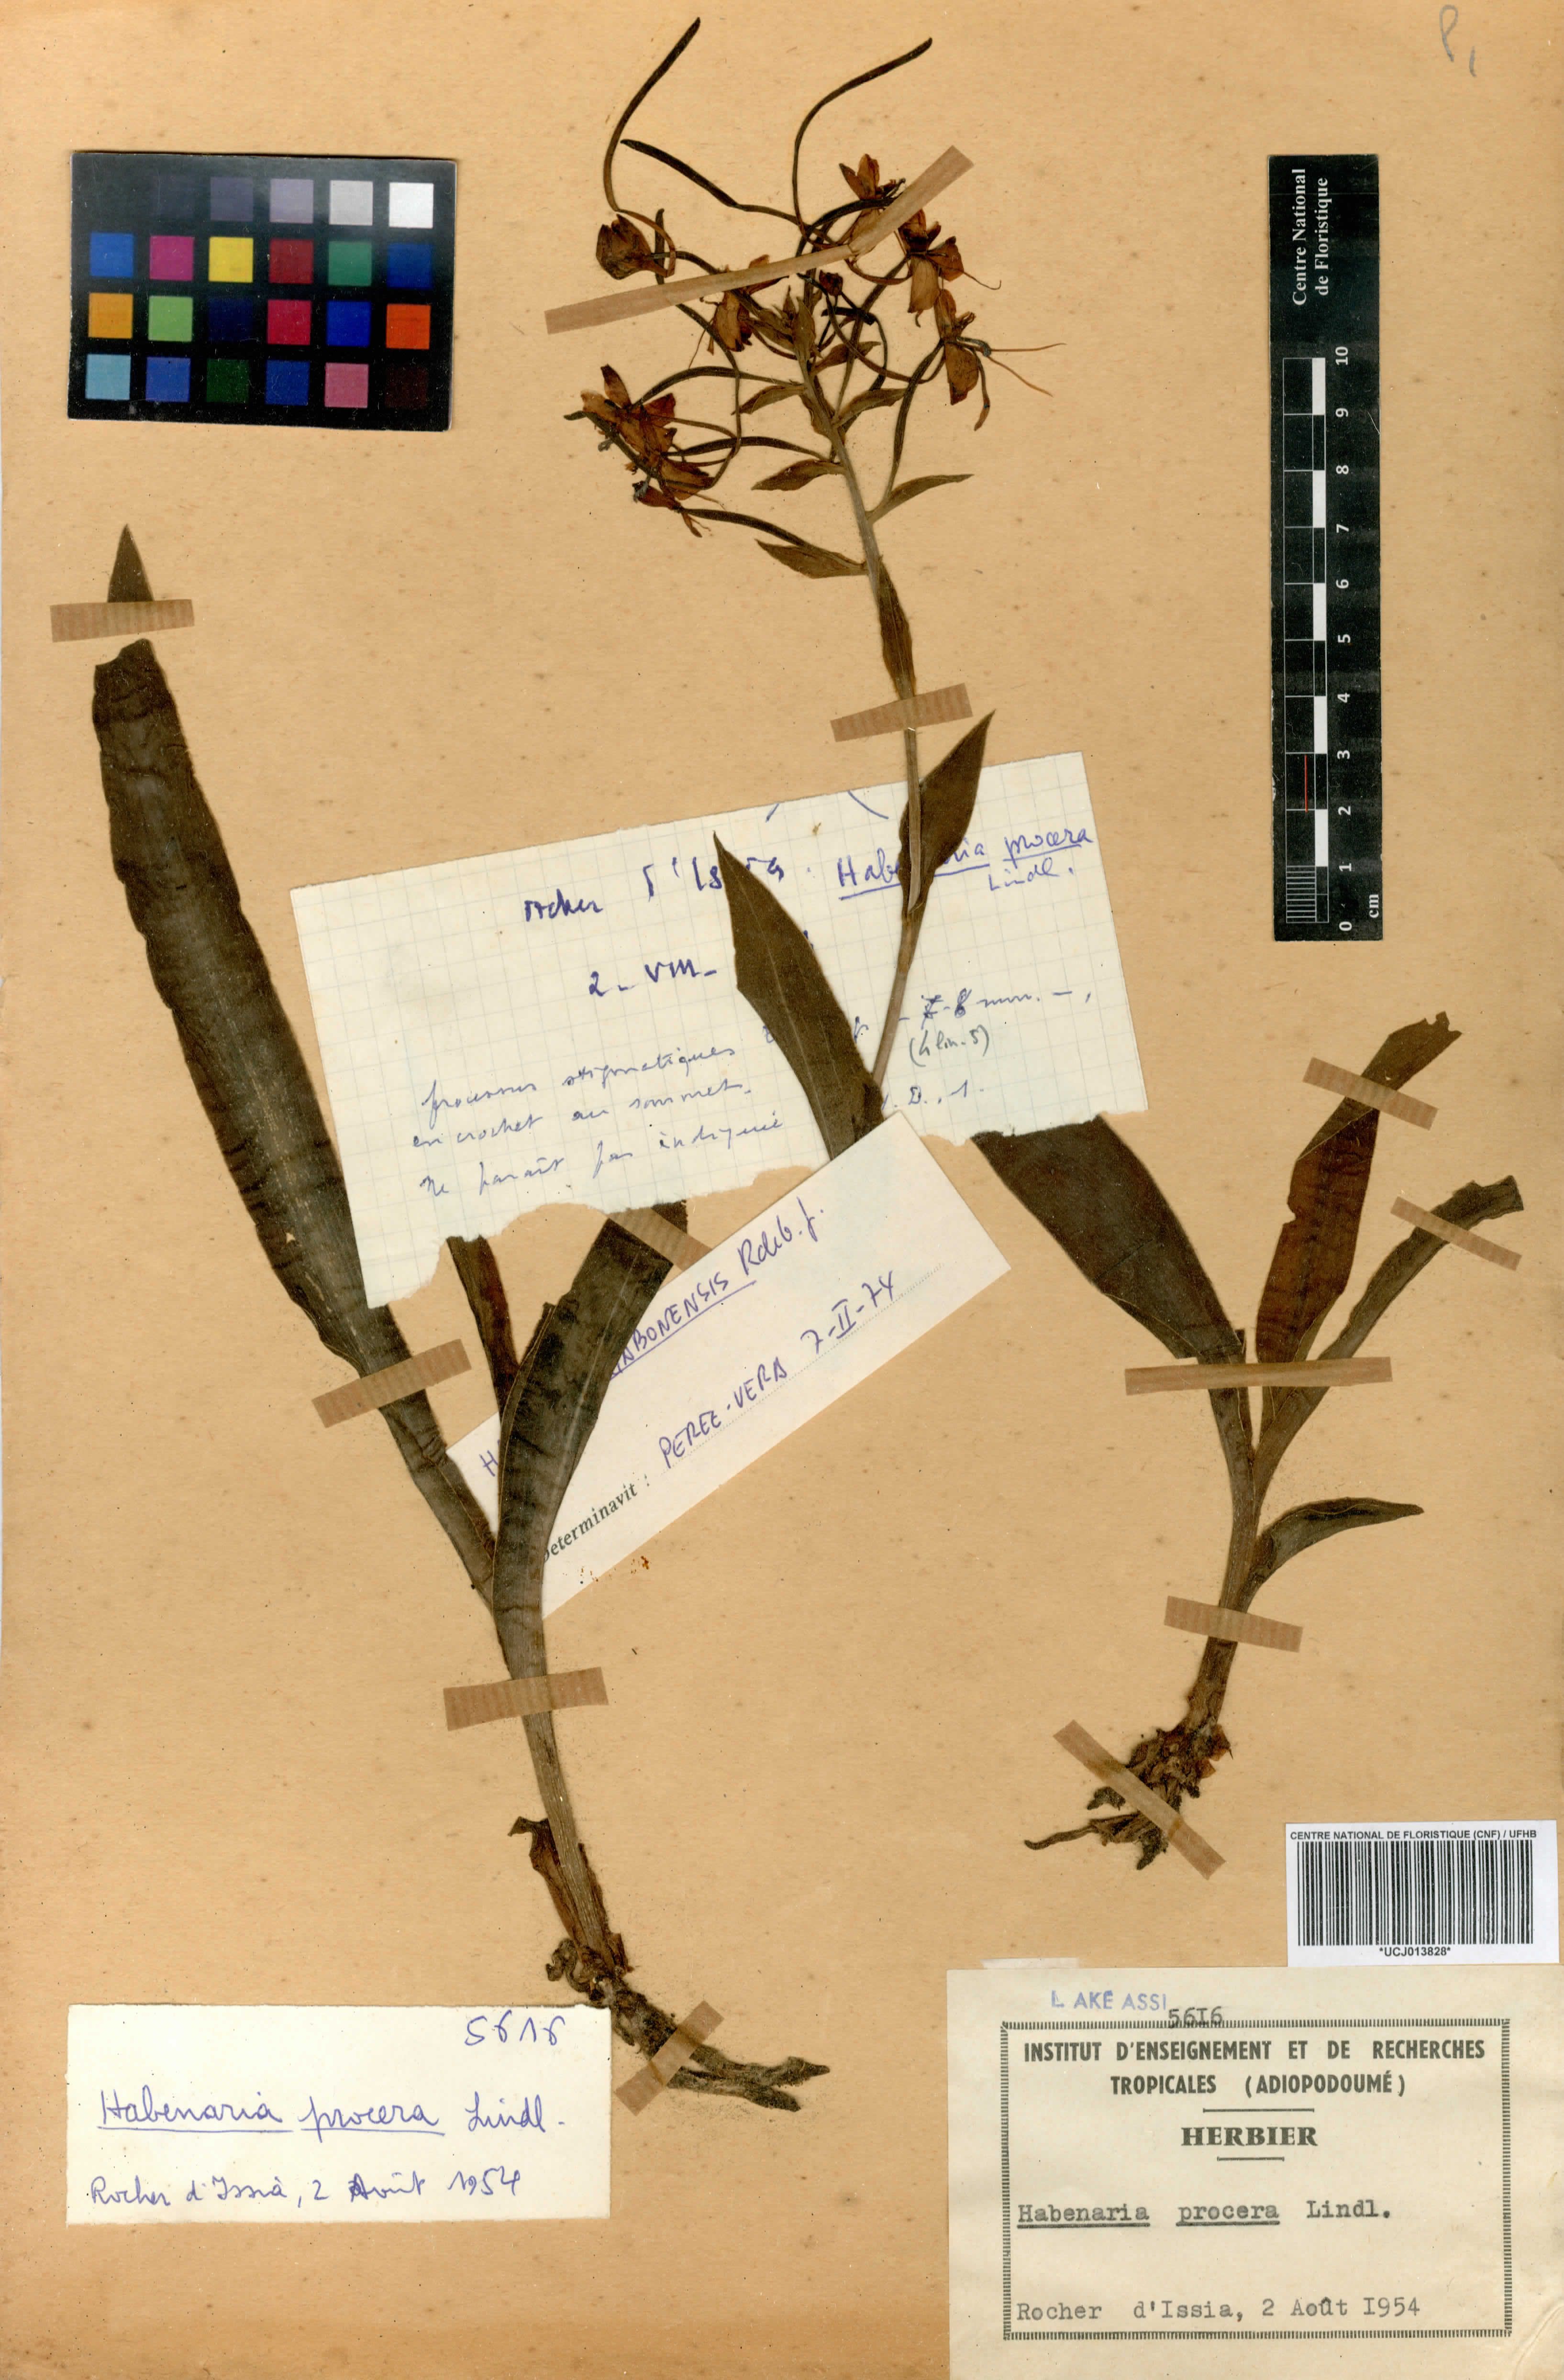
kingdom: Plantae
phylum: Tracheophyta
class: Liliopsida
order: Asparagales
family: Orchidaceae
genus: Habenaria
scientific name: Habenaria procera
